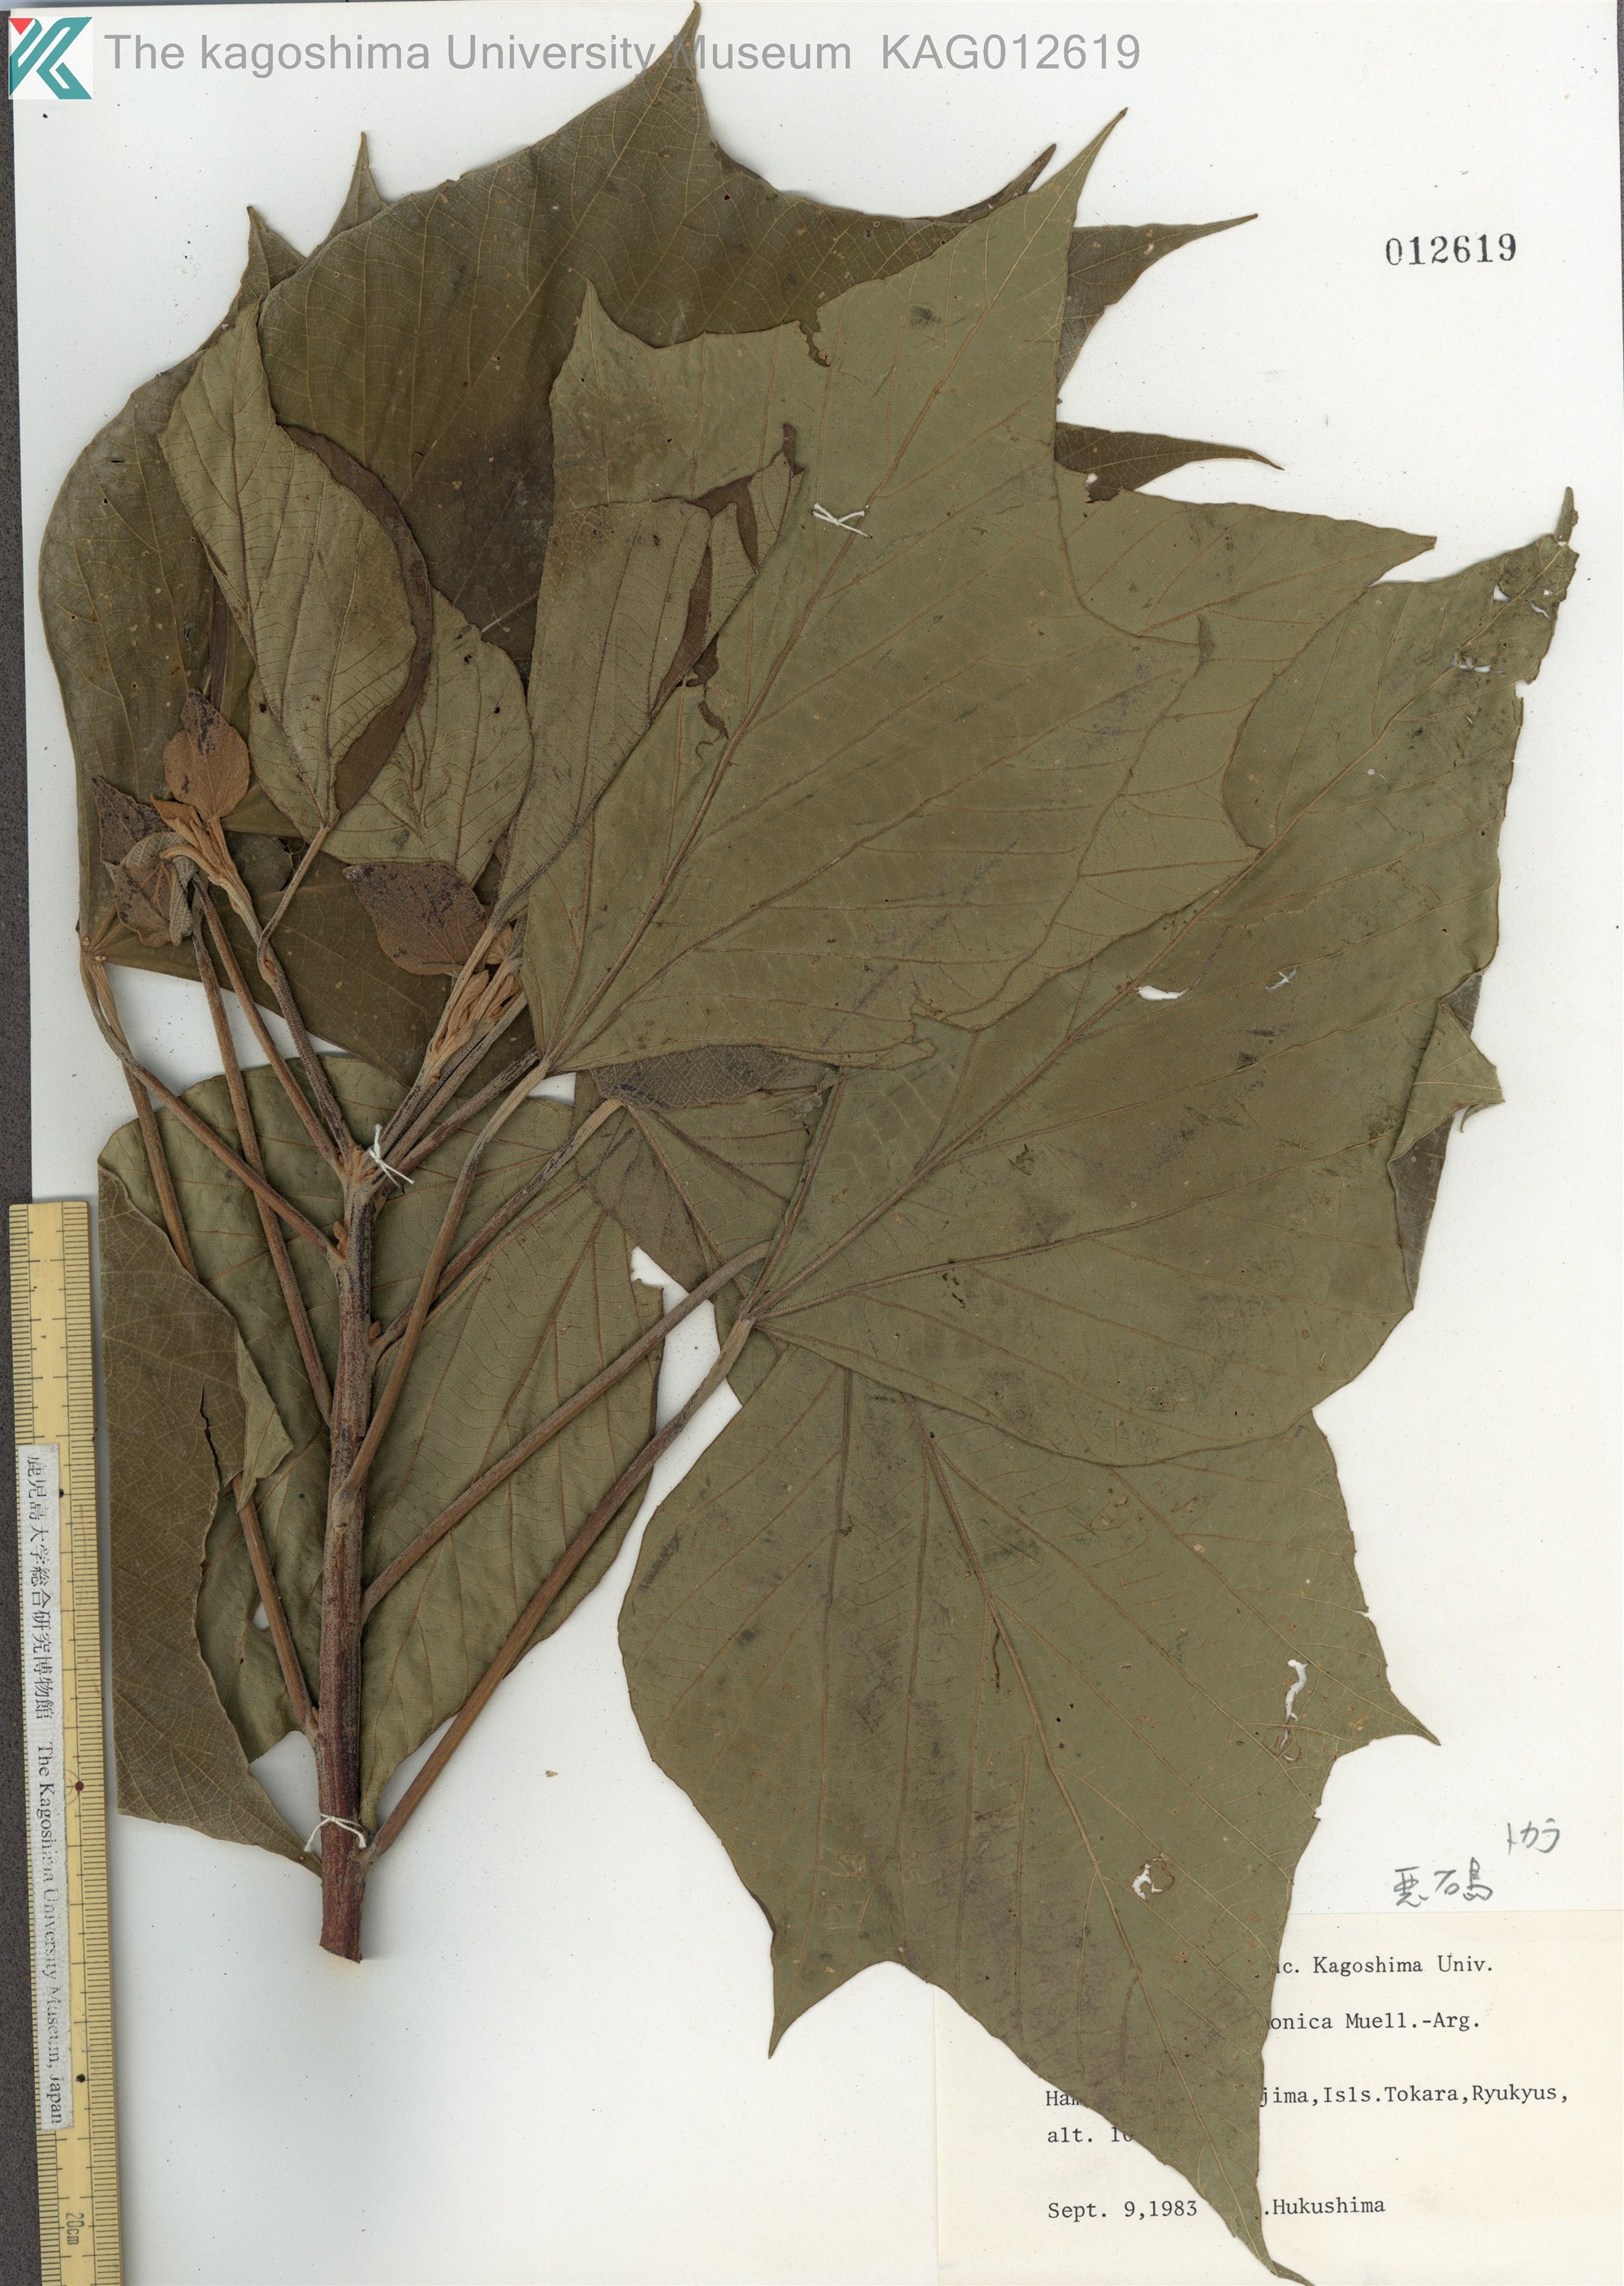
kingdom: Plantae
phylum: Tracheophyta
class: Magnoliopsida
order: Malpighiales
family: Euphorbiaceae
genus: Mallotus
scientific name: Mallotus japonicus
